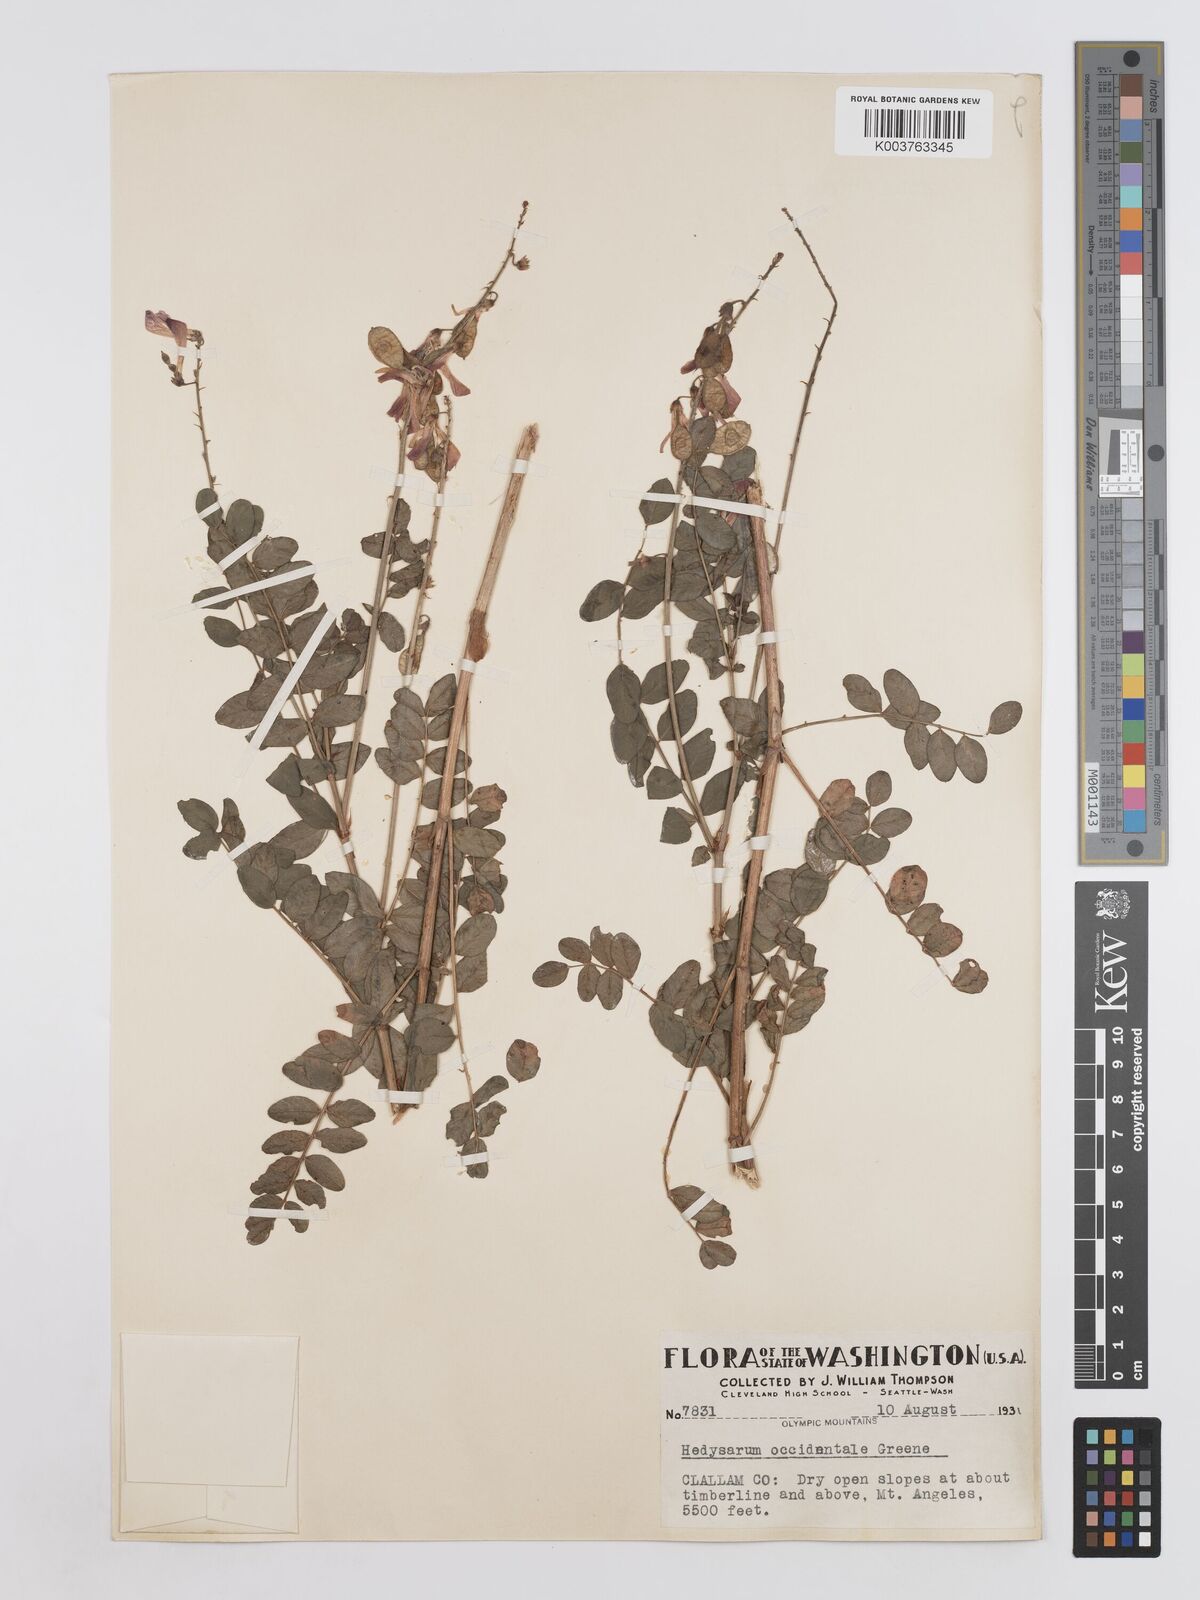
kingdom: Plantae
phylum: Tracheophyta
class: Magnoliopsida
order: Fabales
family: Fabaceae
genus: Hedysarum
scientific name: Hedysarum occidentale
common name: Western hedysarum
